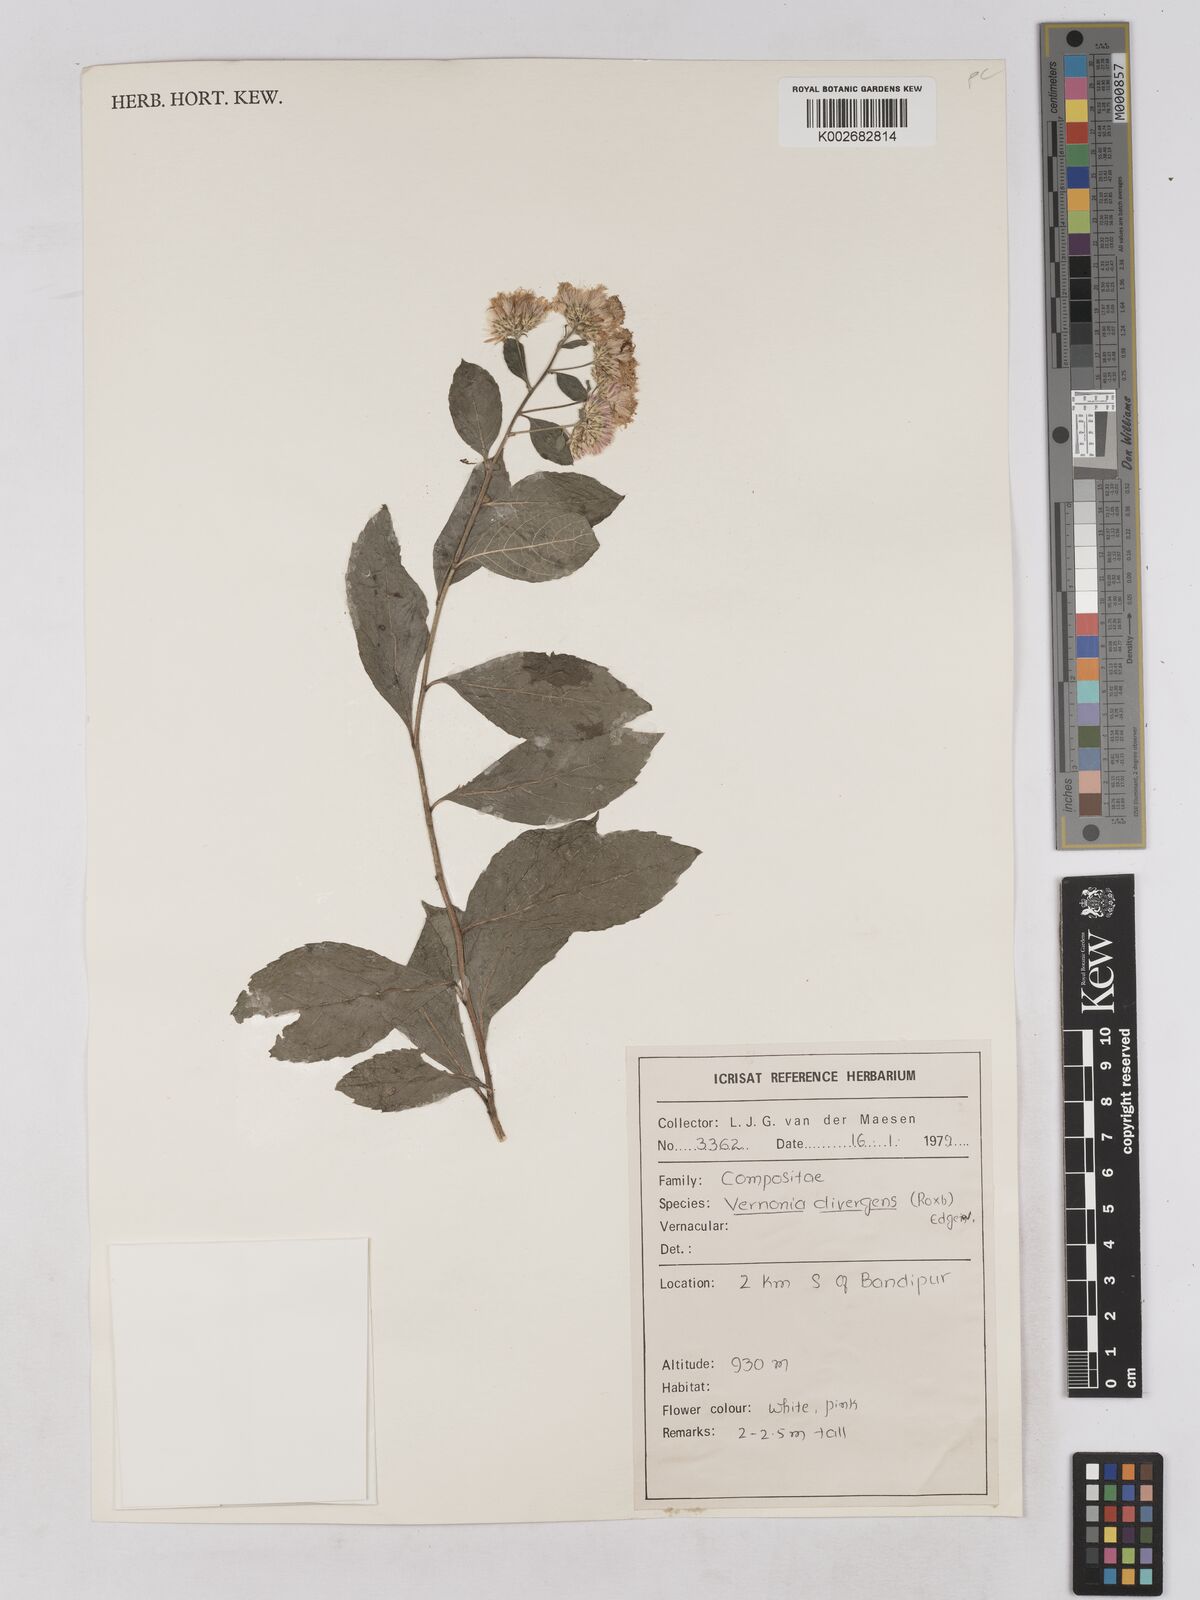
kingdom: Plantae
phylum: Tracheophyta
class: Magnoliopsida
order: Asterales
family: Asteraceae
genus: Acilepis
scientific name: Acilepis divergens
